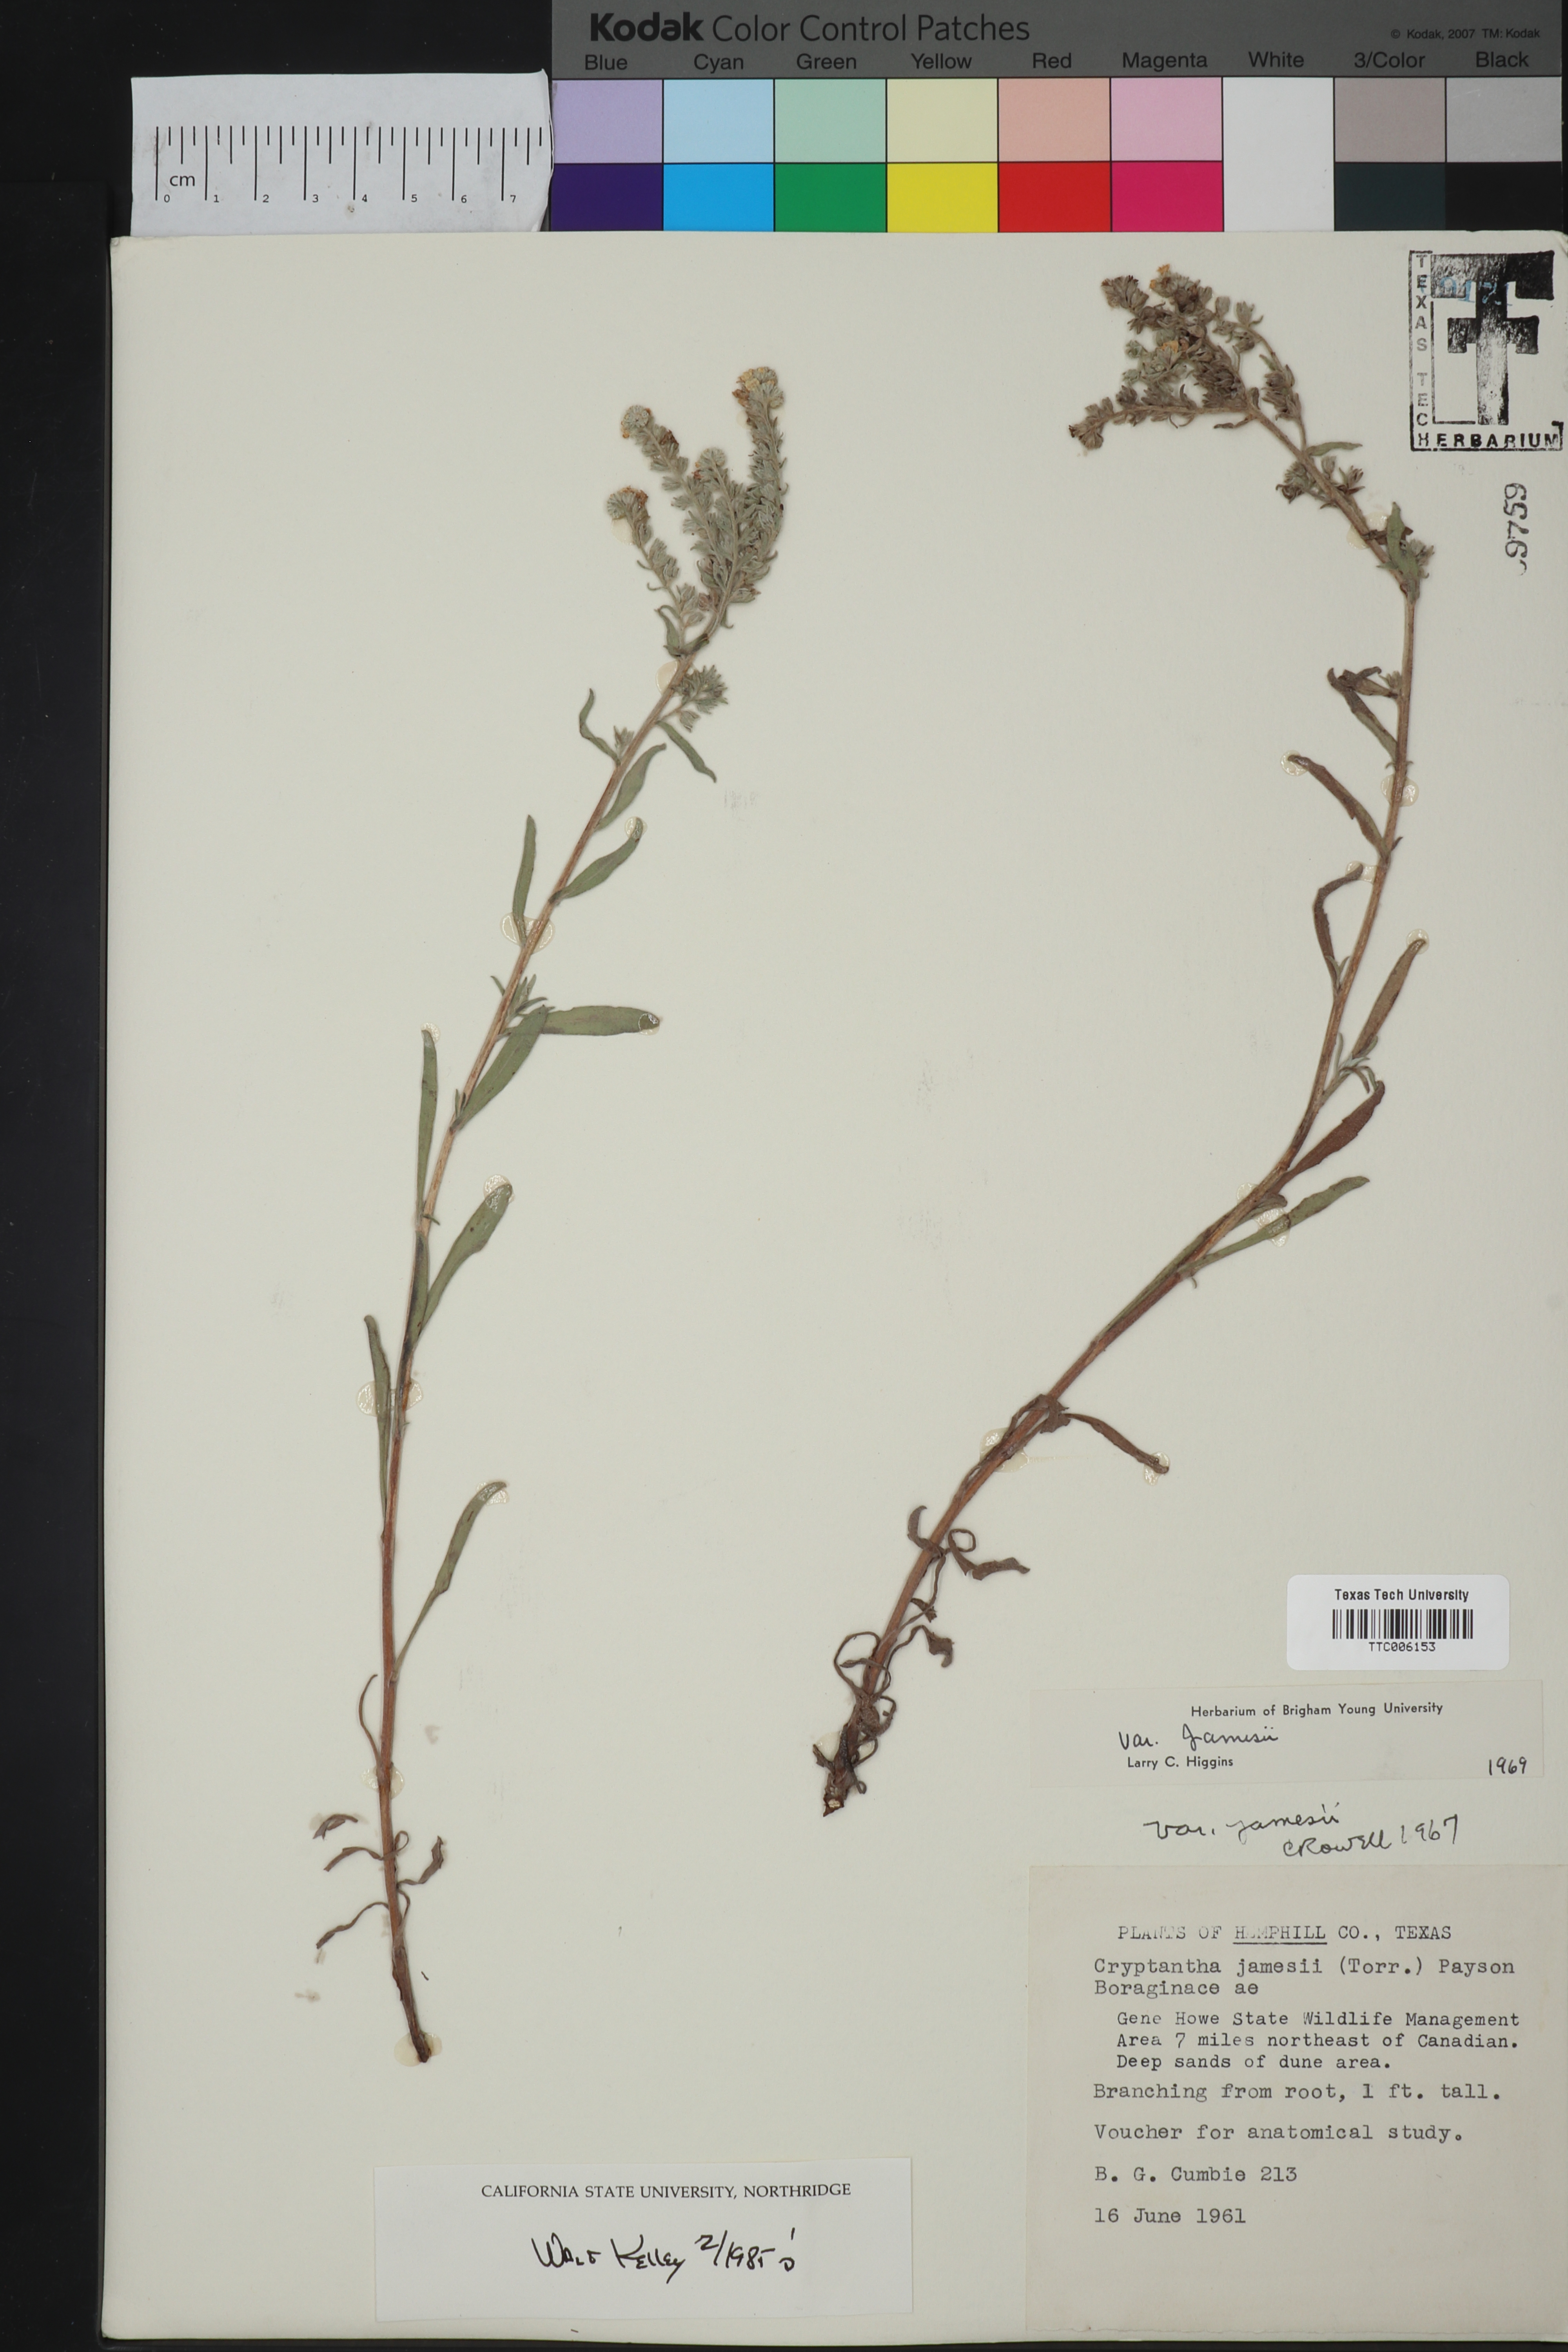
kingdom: Plantae
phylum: Tracheophyta
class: Magnoliopsida
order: Boraginales
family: Boraginaceae
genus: Oreocarya
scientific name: Oreocarya suffruticosa
